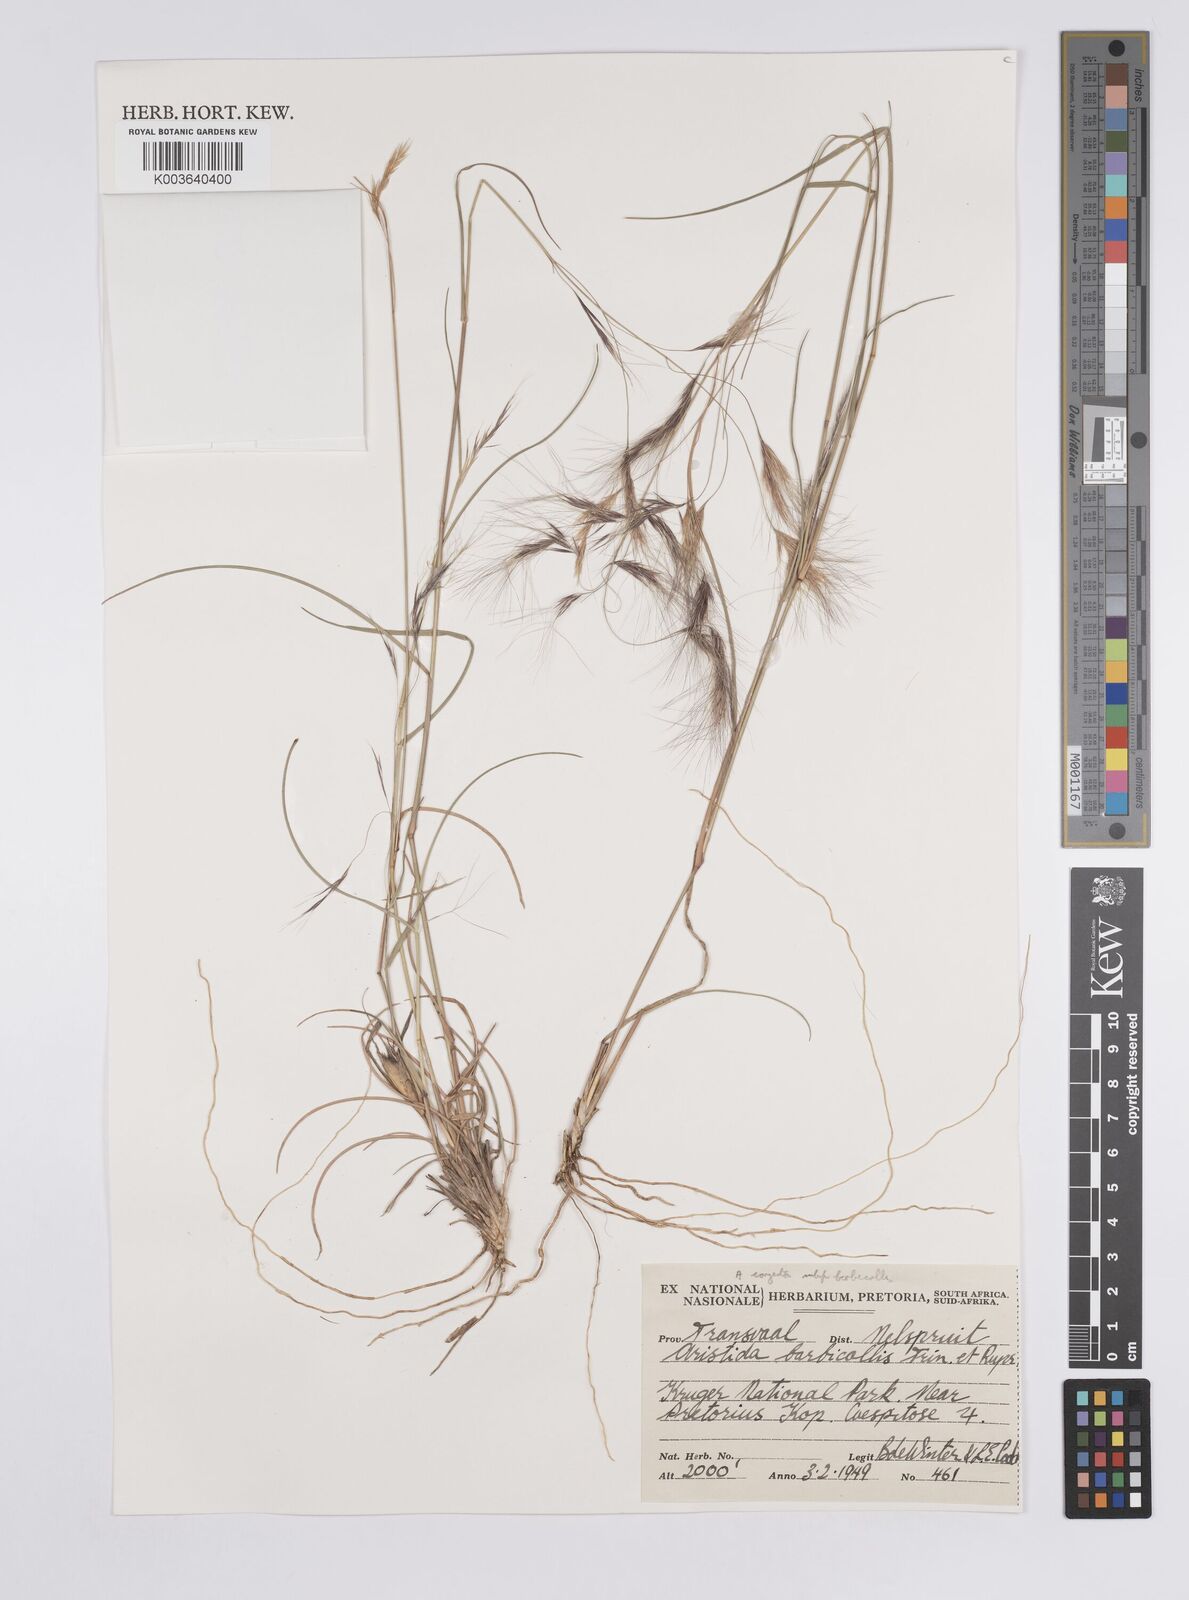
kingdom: Plantae
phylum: Tracheophyta
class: Liliopsida
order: Poales
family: Poaceae
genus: Aristida
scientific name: Aristida barbicollis
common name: Spreading prickle grass
